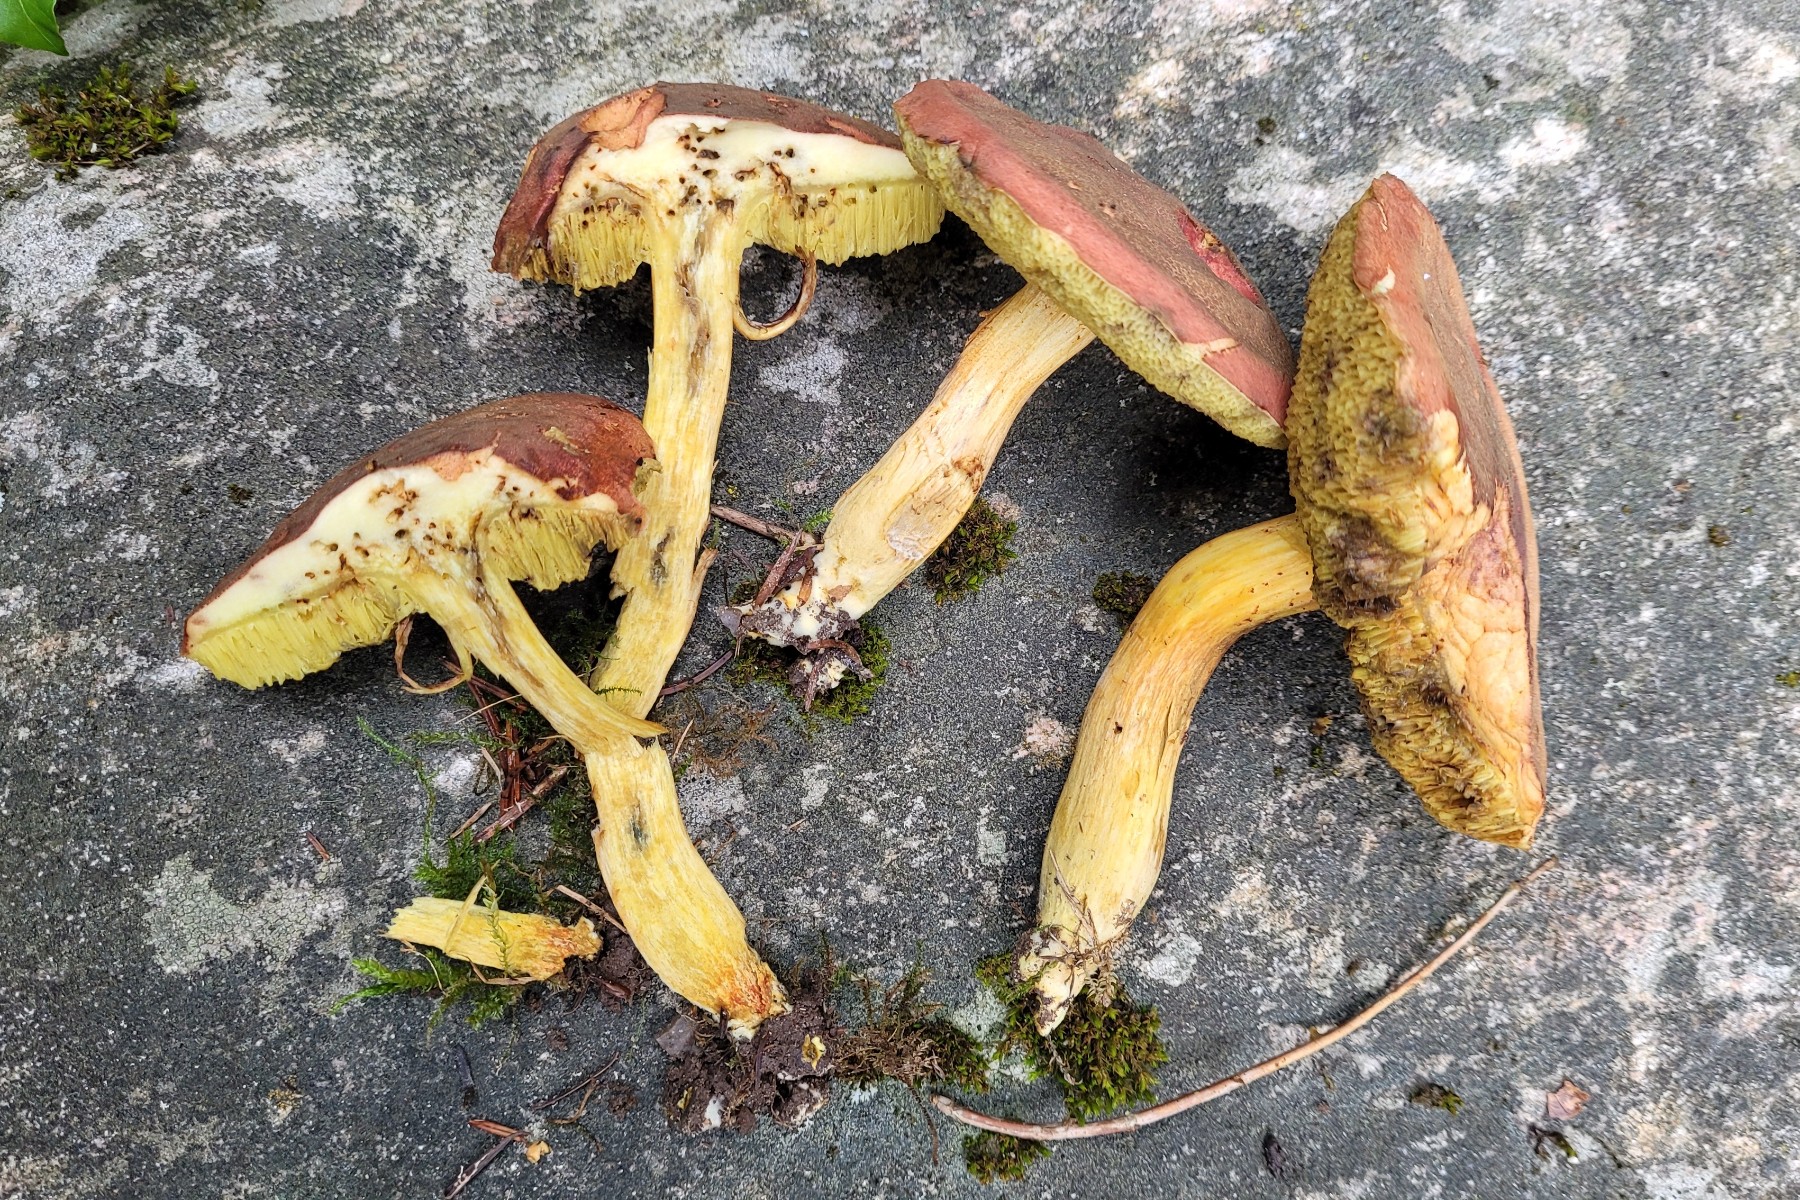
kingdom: Fungi
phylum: Basidiomycota
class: Agaricomycetes
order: Boletales
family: Boletaceae
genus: Hortiboletus
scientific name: Hortiboletus rubellus
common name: blodrød rørhat
